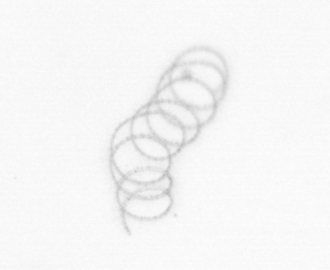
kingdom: Chromista
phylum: Ochrophyta
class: Bacillariophyceae
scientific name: Bacillariophyceae
